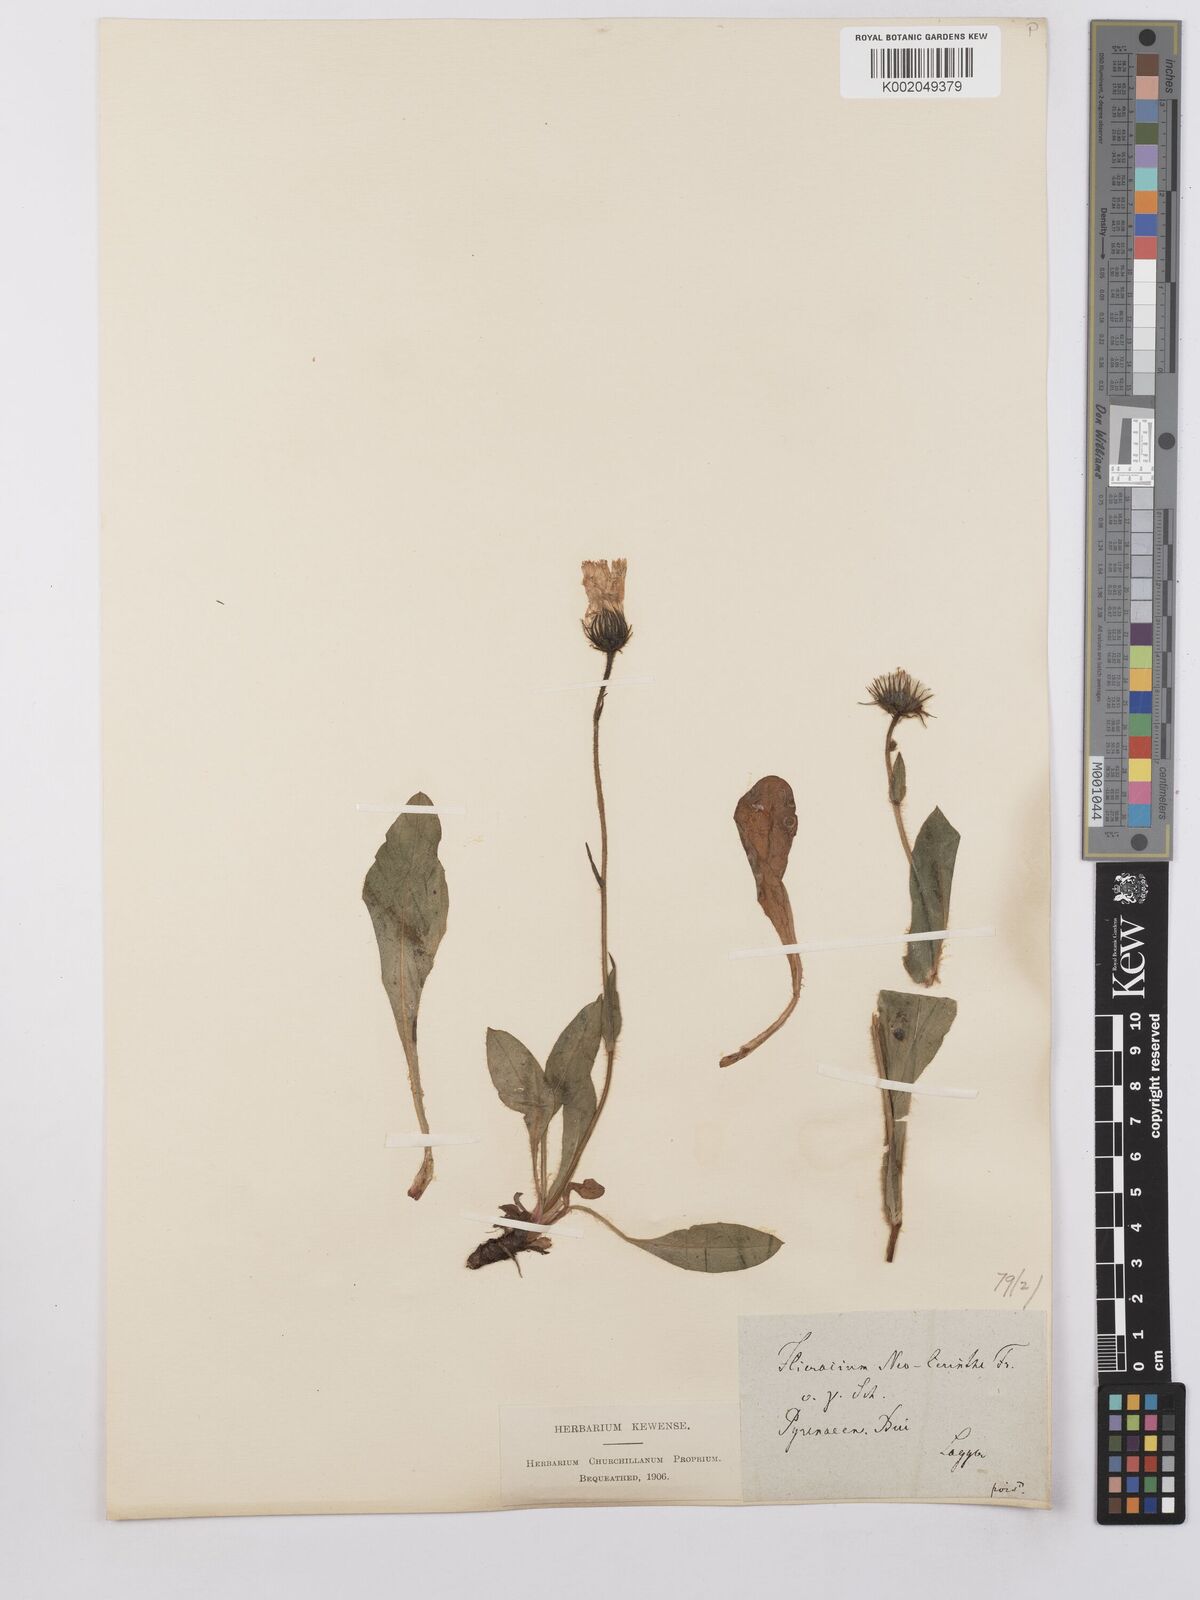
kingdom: Plantae
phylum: Tracheophyta
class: Magnoliopsida
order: Asterales
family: Asteraceae
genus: Hieracium
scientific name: Hieracium cerinthoides
